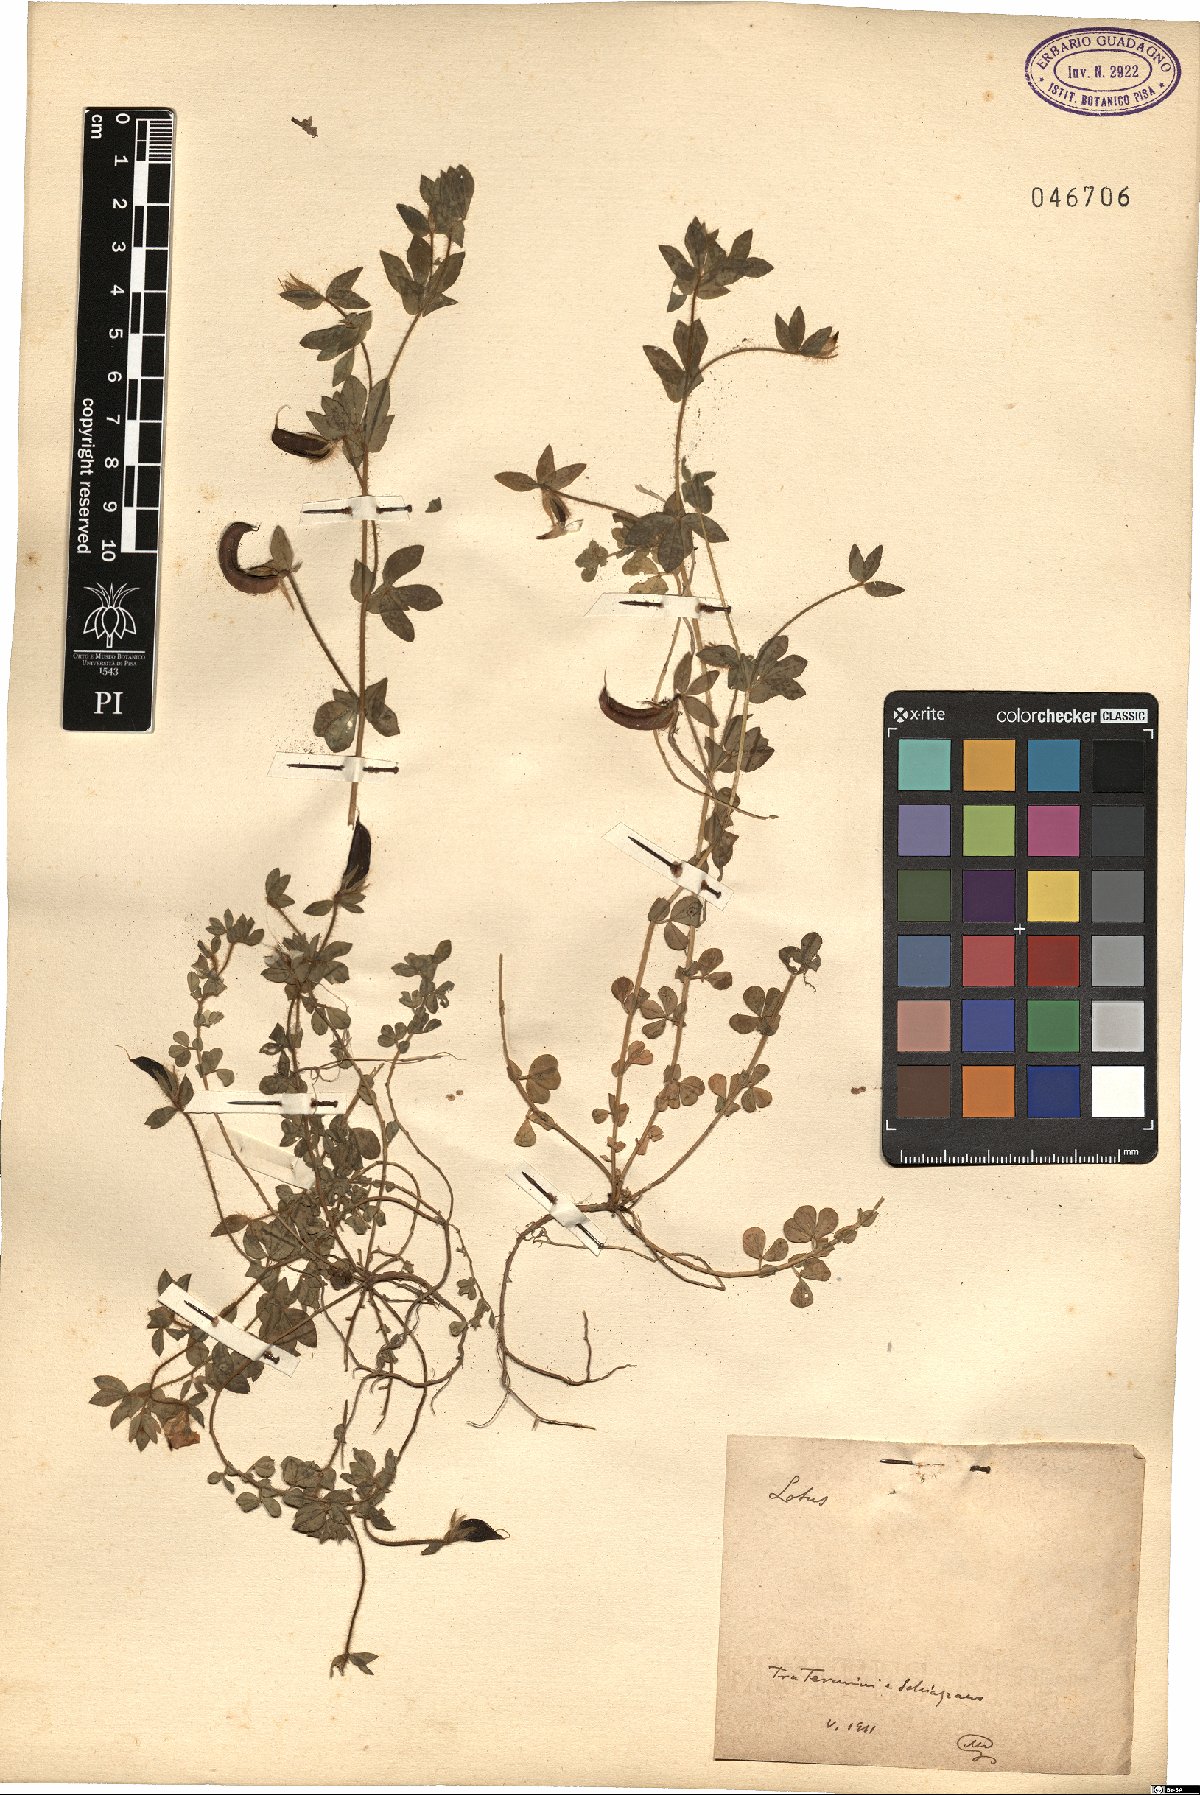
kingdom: Plantae
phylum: Tracheophyta
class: Magnoliopsida
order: Fabales
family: Fabaceae
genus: Lotus
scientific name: Lotus
